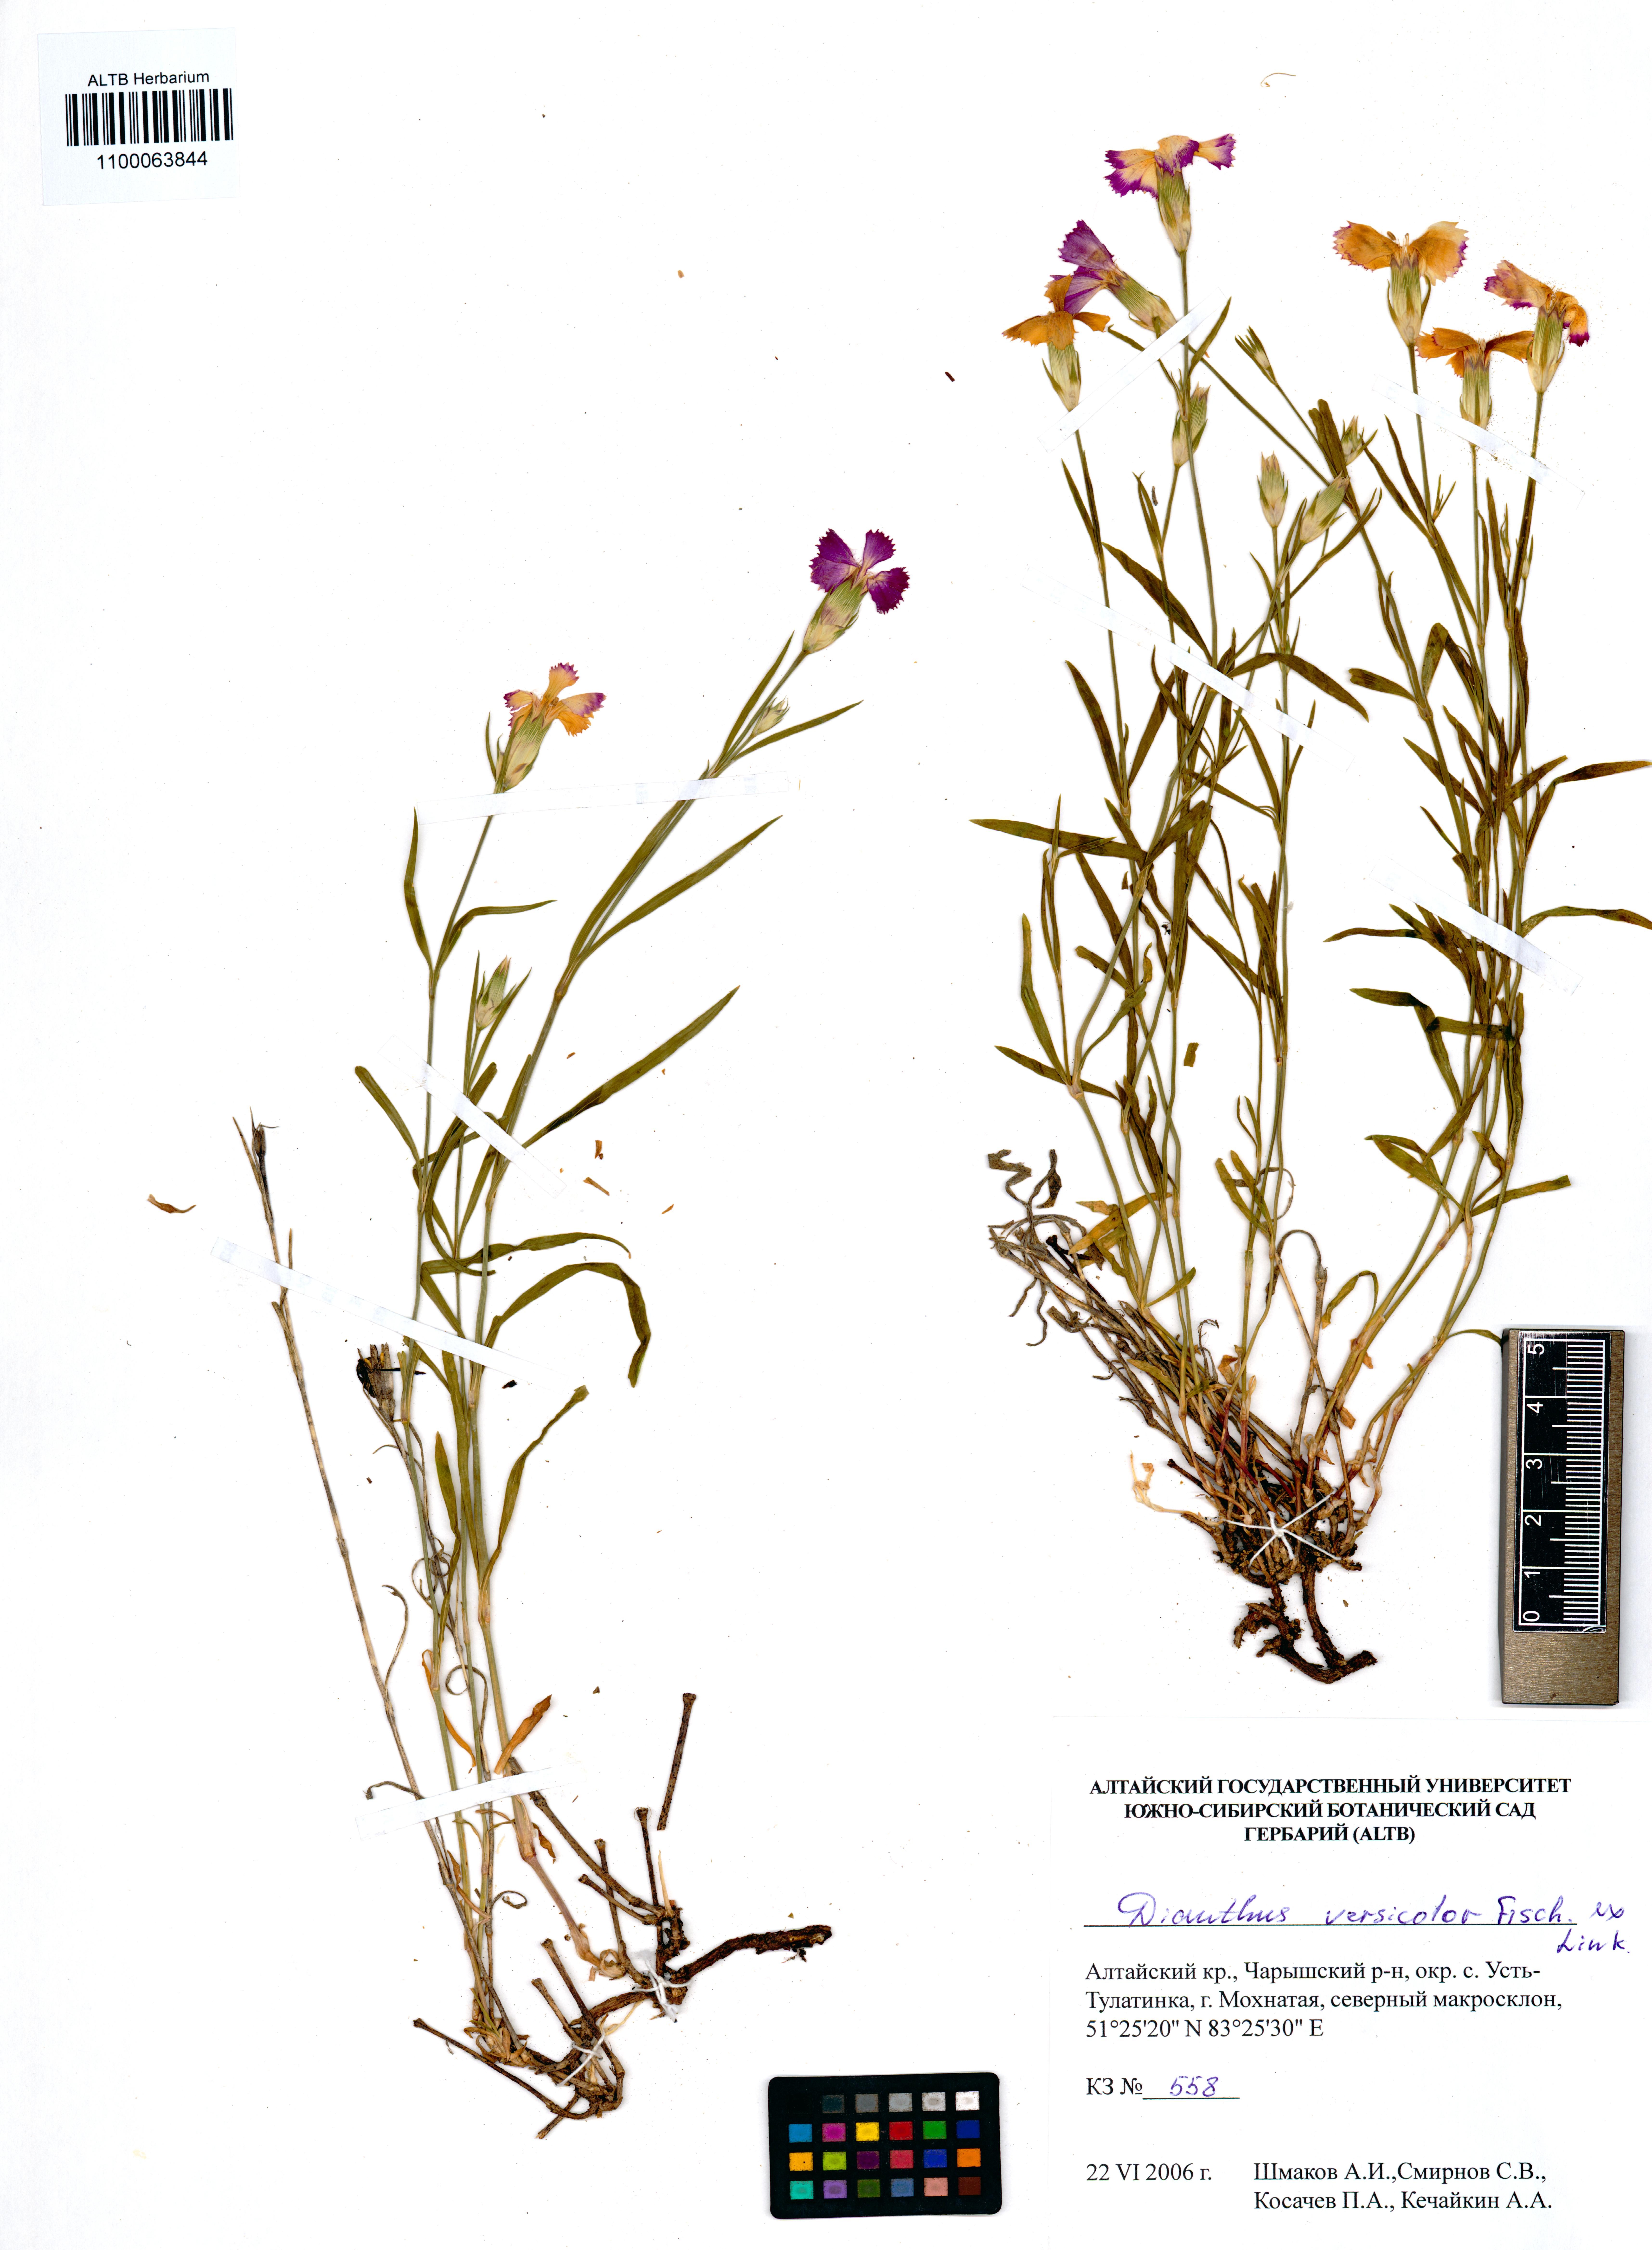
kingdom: Plantae
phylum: Tracheophyta
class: Magnoliopsida
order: Caryophyllales
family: Caryophyllaceae
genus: Dianthus
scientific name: Dianthus chinensis
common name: Rainbow pink
